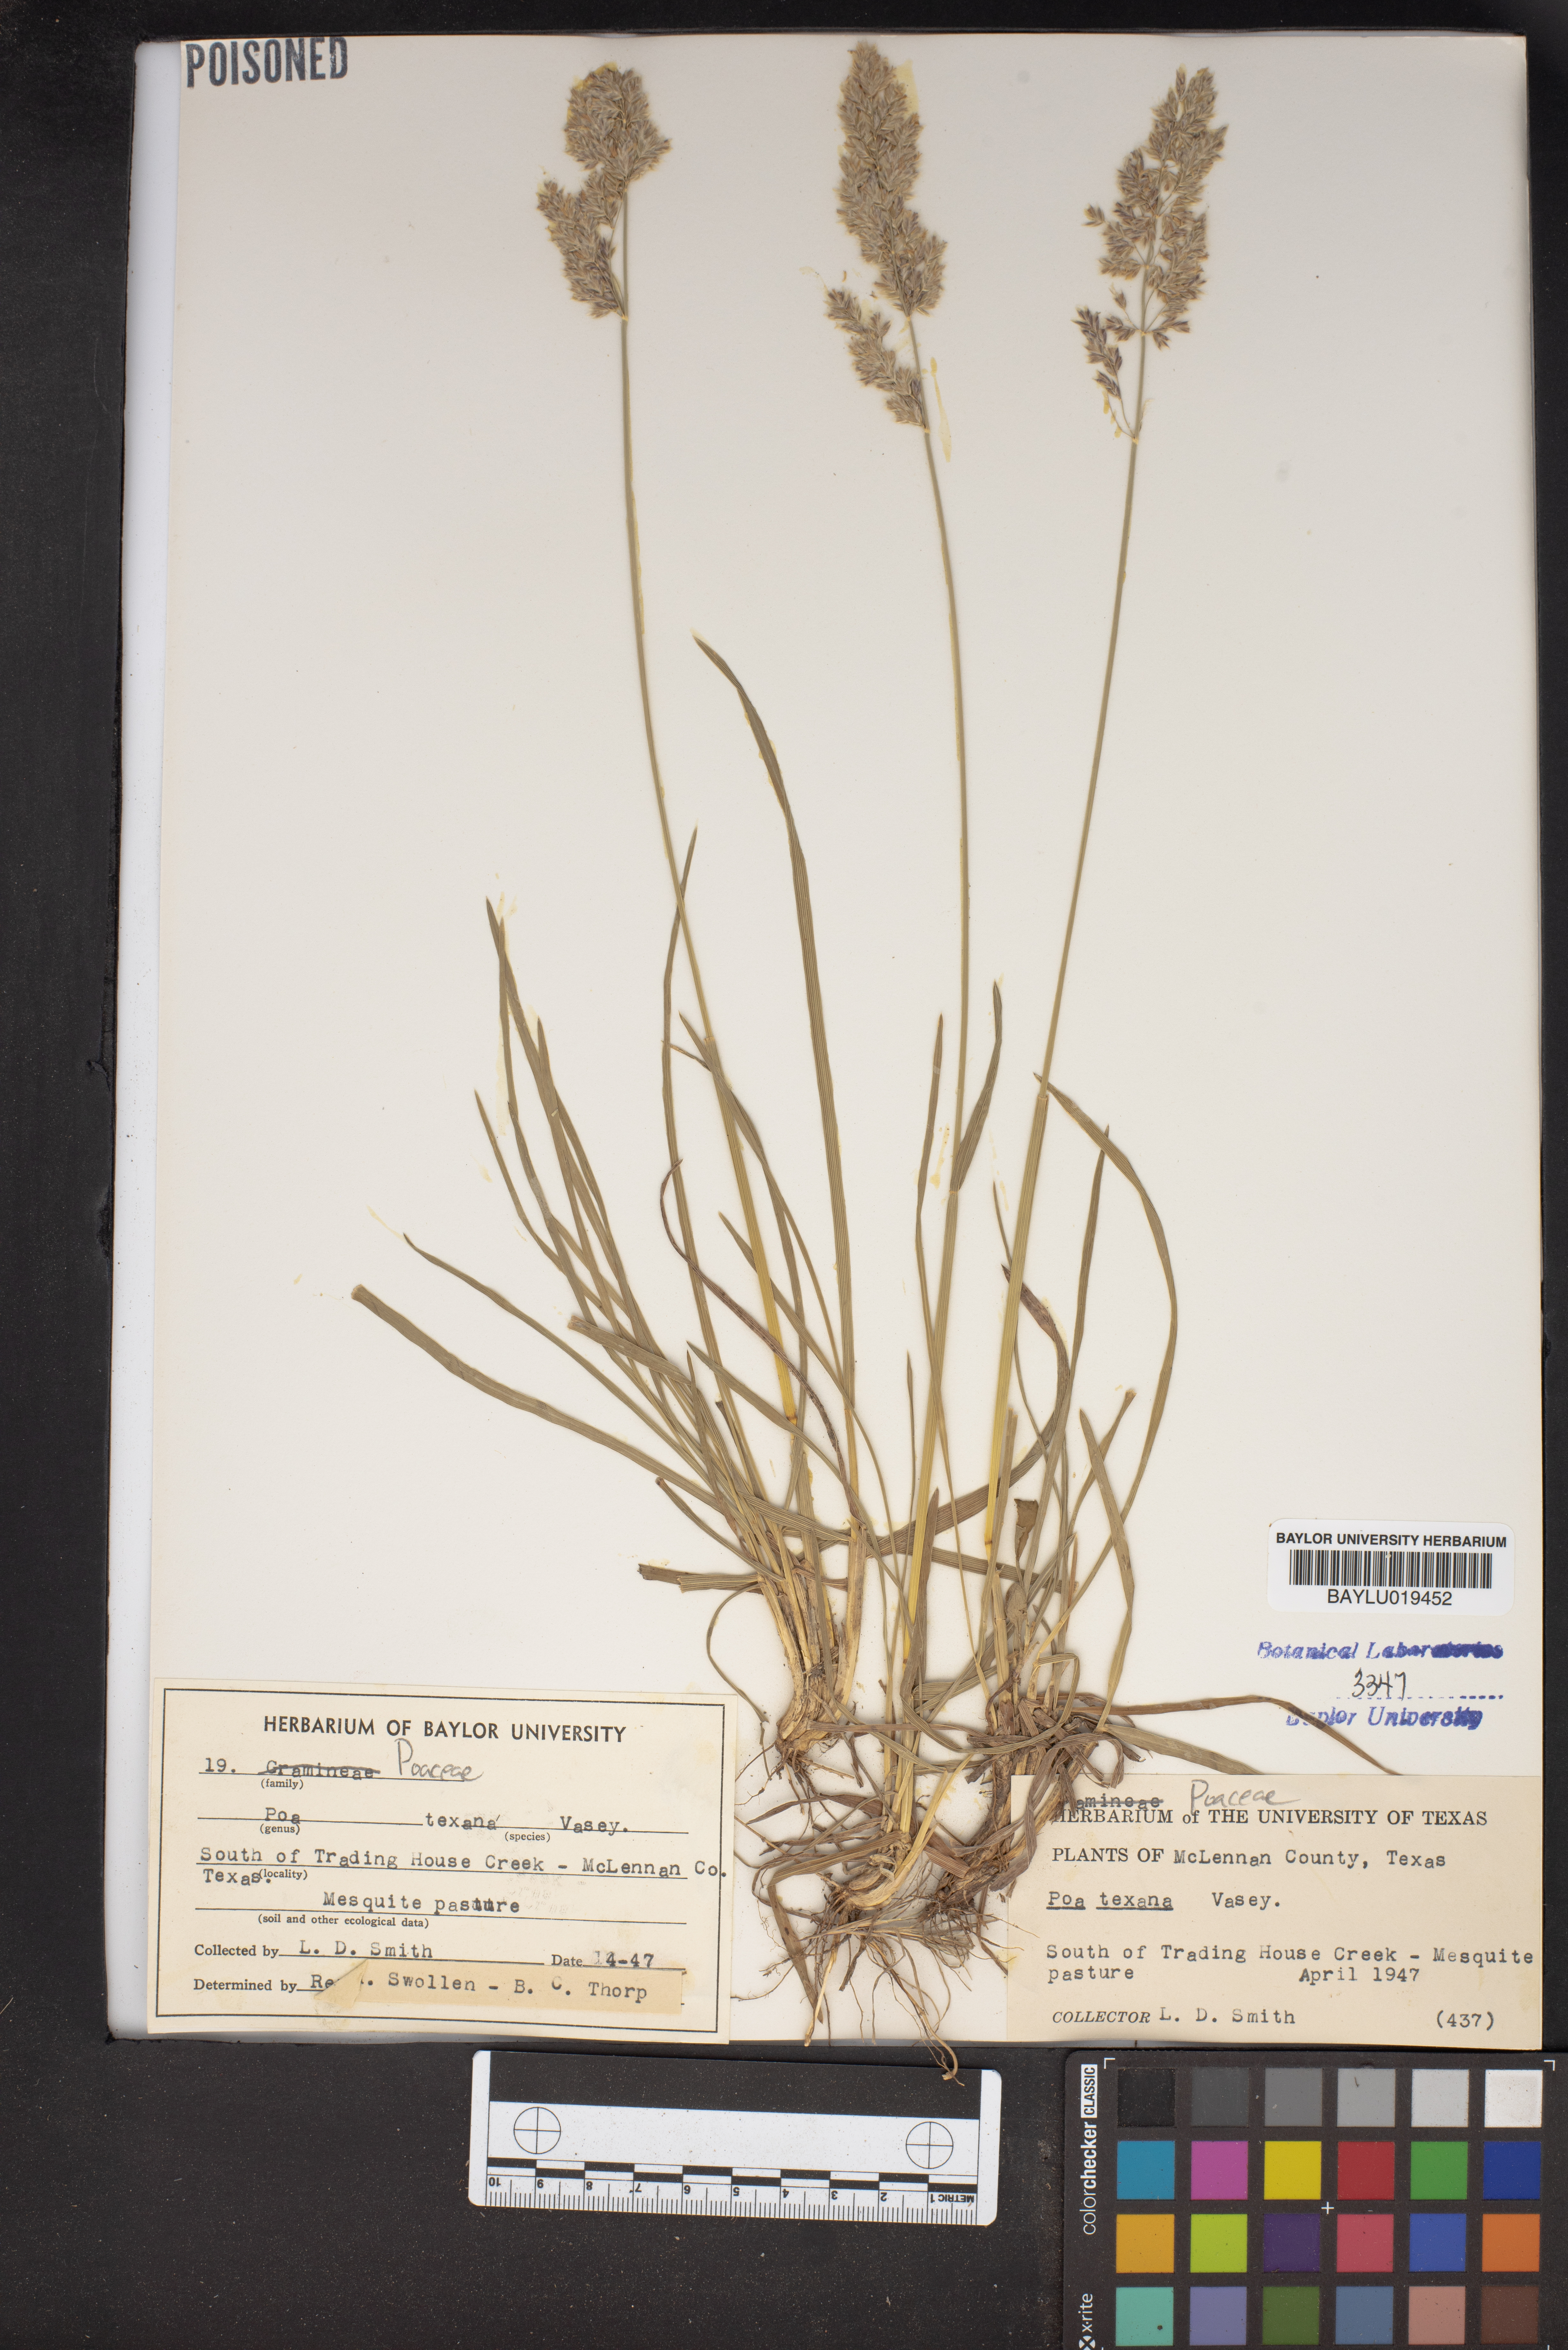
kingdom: Plantae
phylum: Tracheophyta
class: Liliopsida
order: Poales
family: Poaceae
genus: Allolepis
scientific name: Allolepis texana
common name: False salt grass
